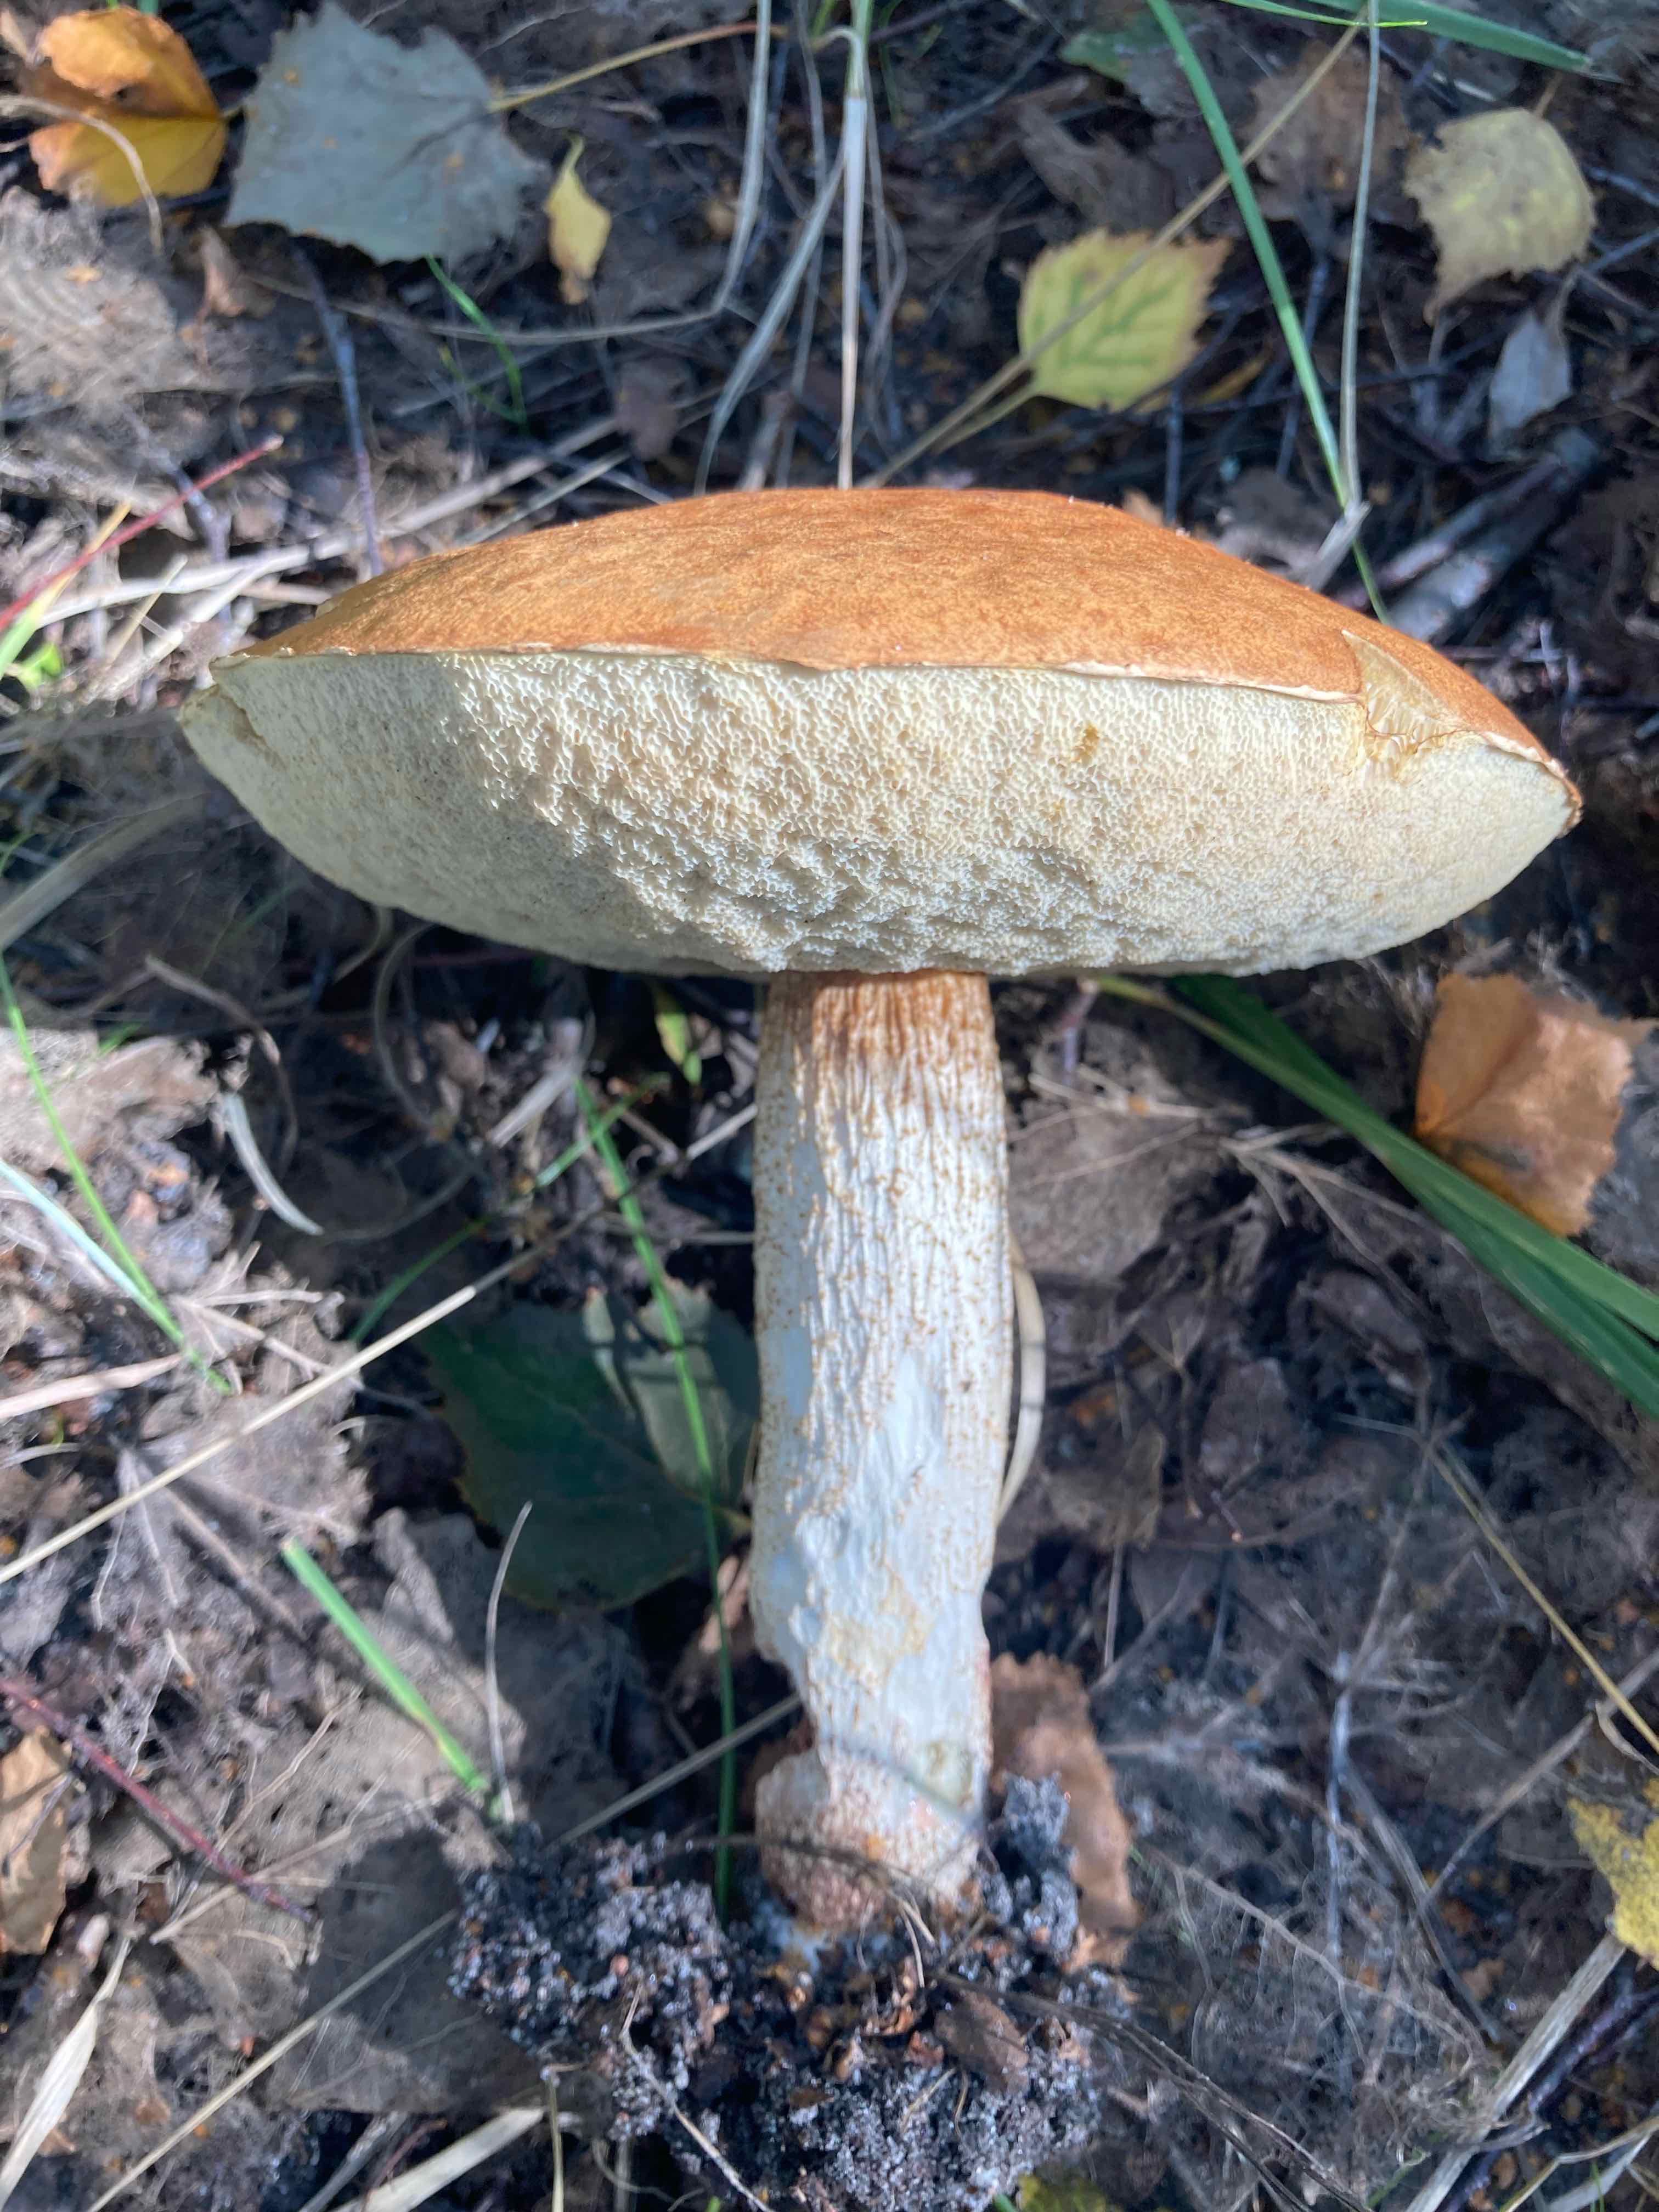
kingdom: Fungi
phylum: Basidiomycota
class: Agaricomycetes
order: Boletales
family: Boletaceae
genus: Leccinum
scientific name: Leccinum
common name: skælrørhat
